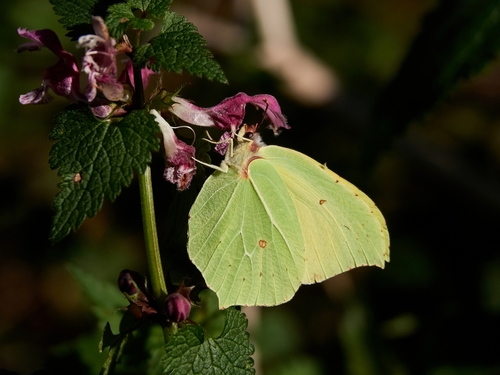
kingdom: Animalia
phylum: Arthropoda
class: Insecta
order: Lepidoptera
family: Pieridae
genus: Gonepteryx
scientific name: Gonepteryx rhamni
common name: Brimstone
